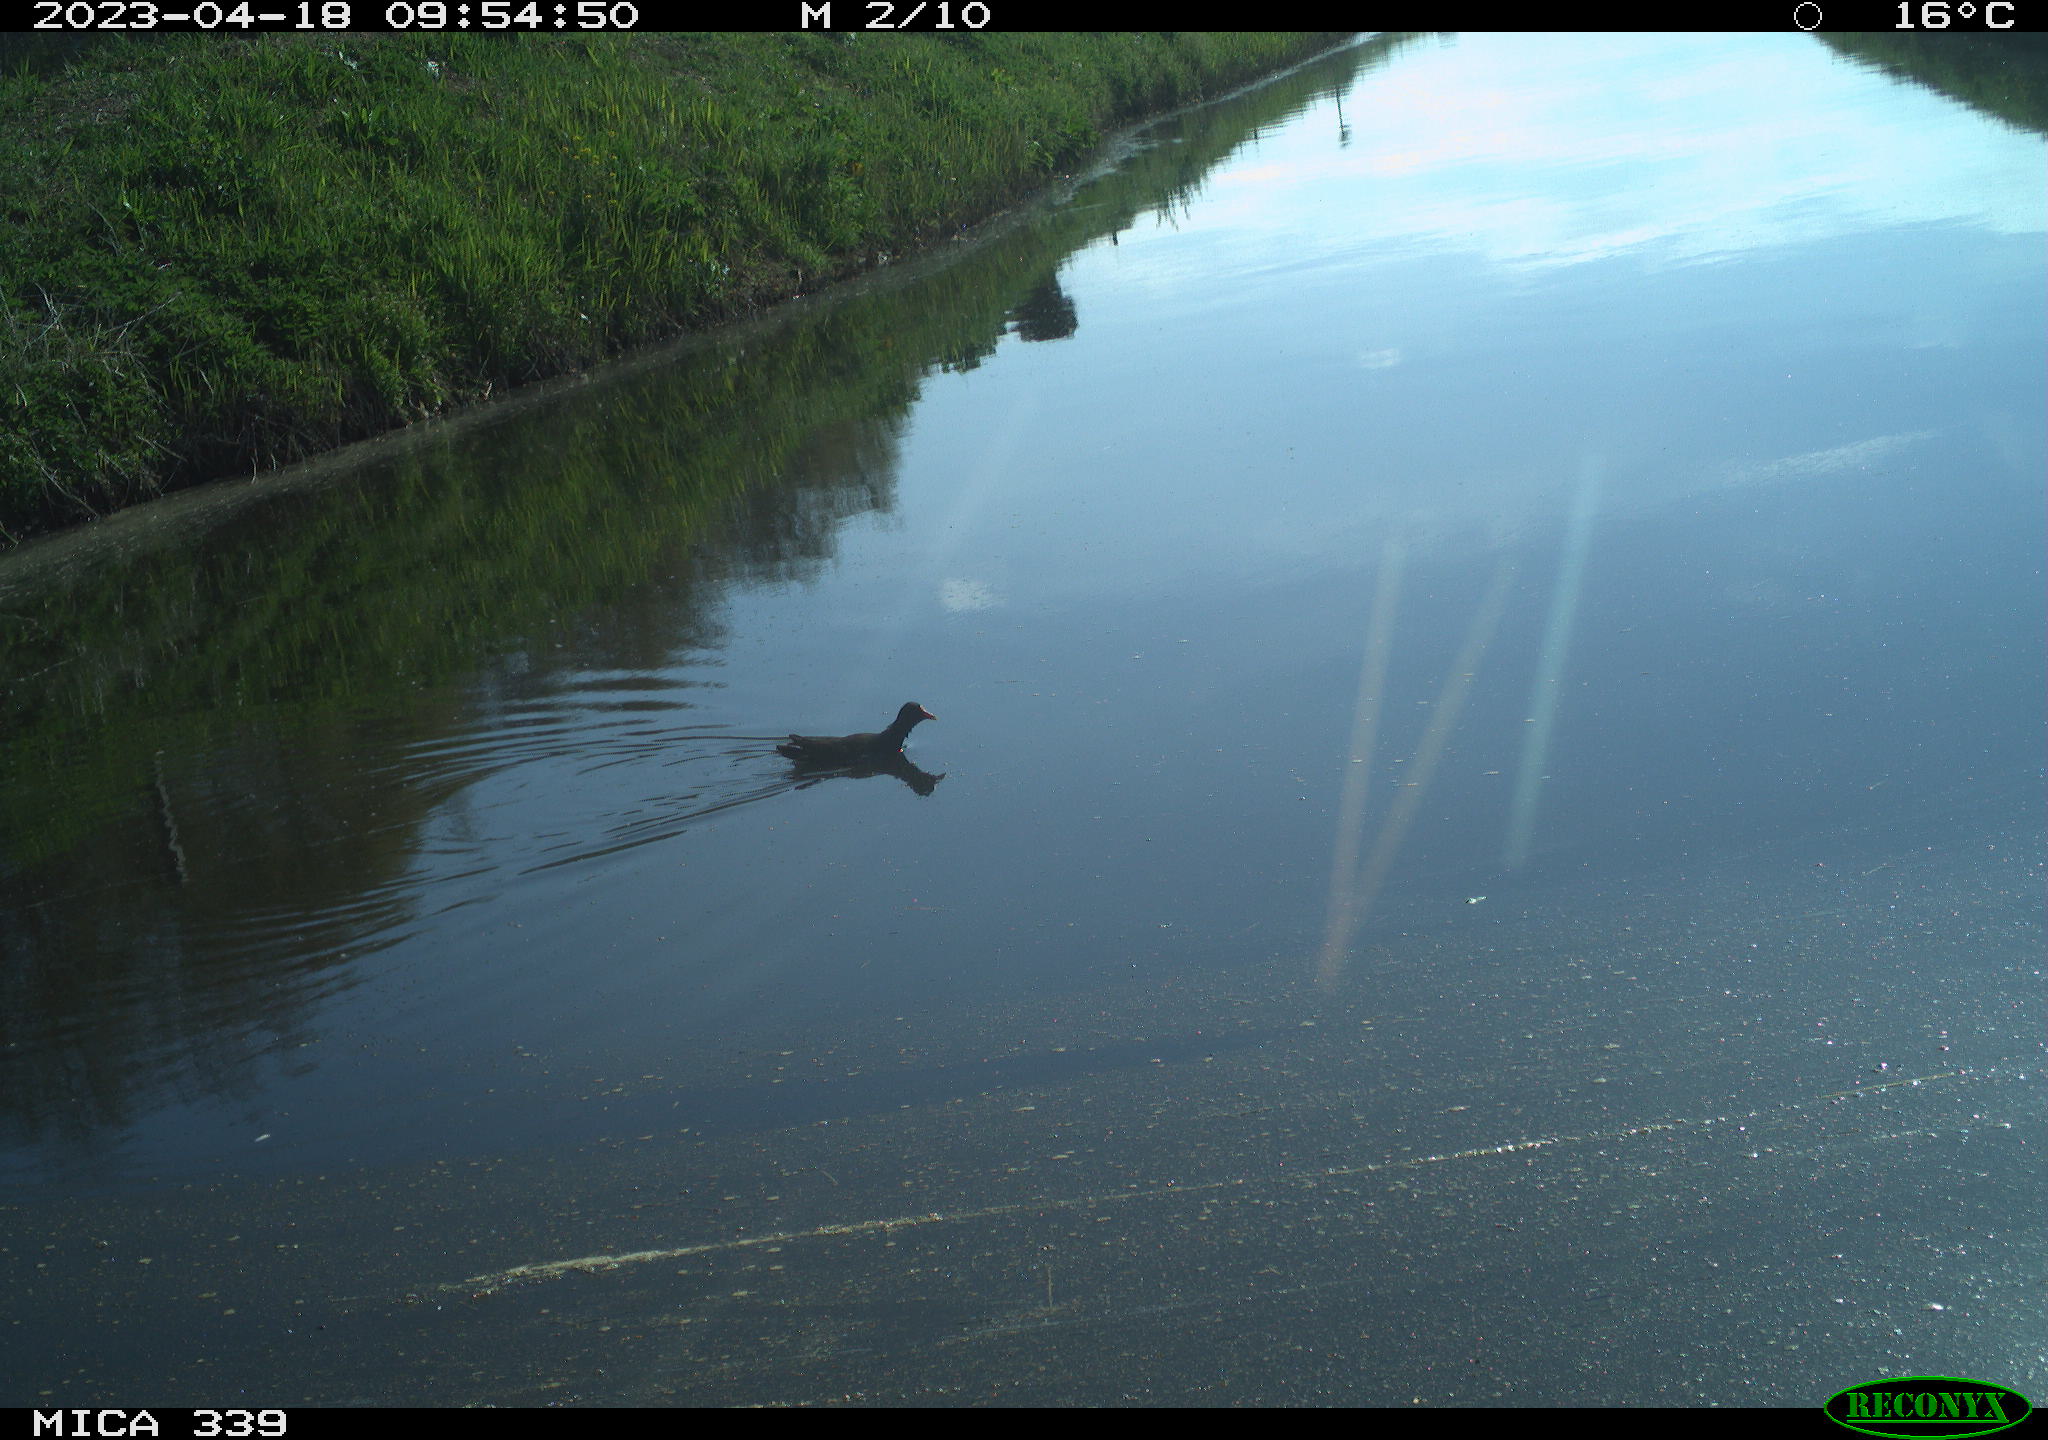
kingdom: Animalia
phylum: Chordata
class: Aves
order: Gruiformes
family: Rallidae
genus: Gallinula
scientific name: Gallinula chloropus
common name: Common moorhen
